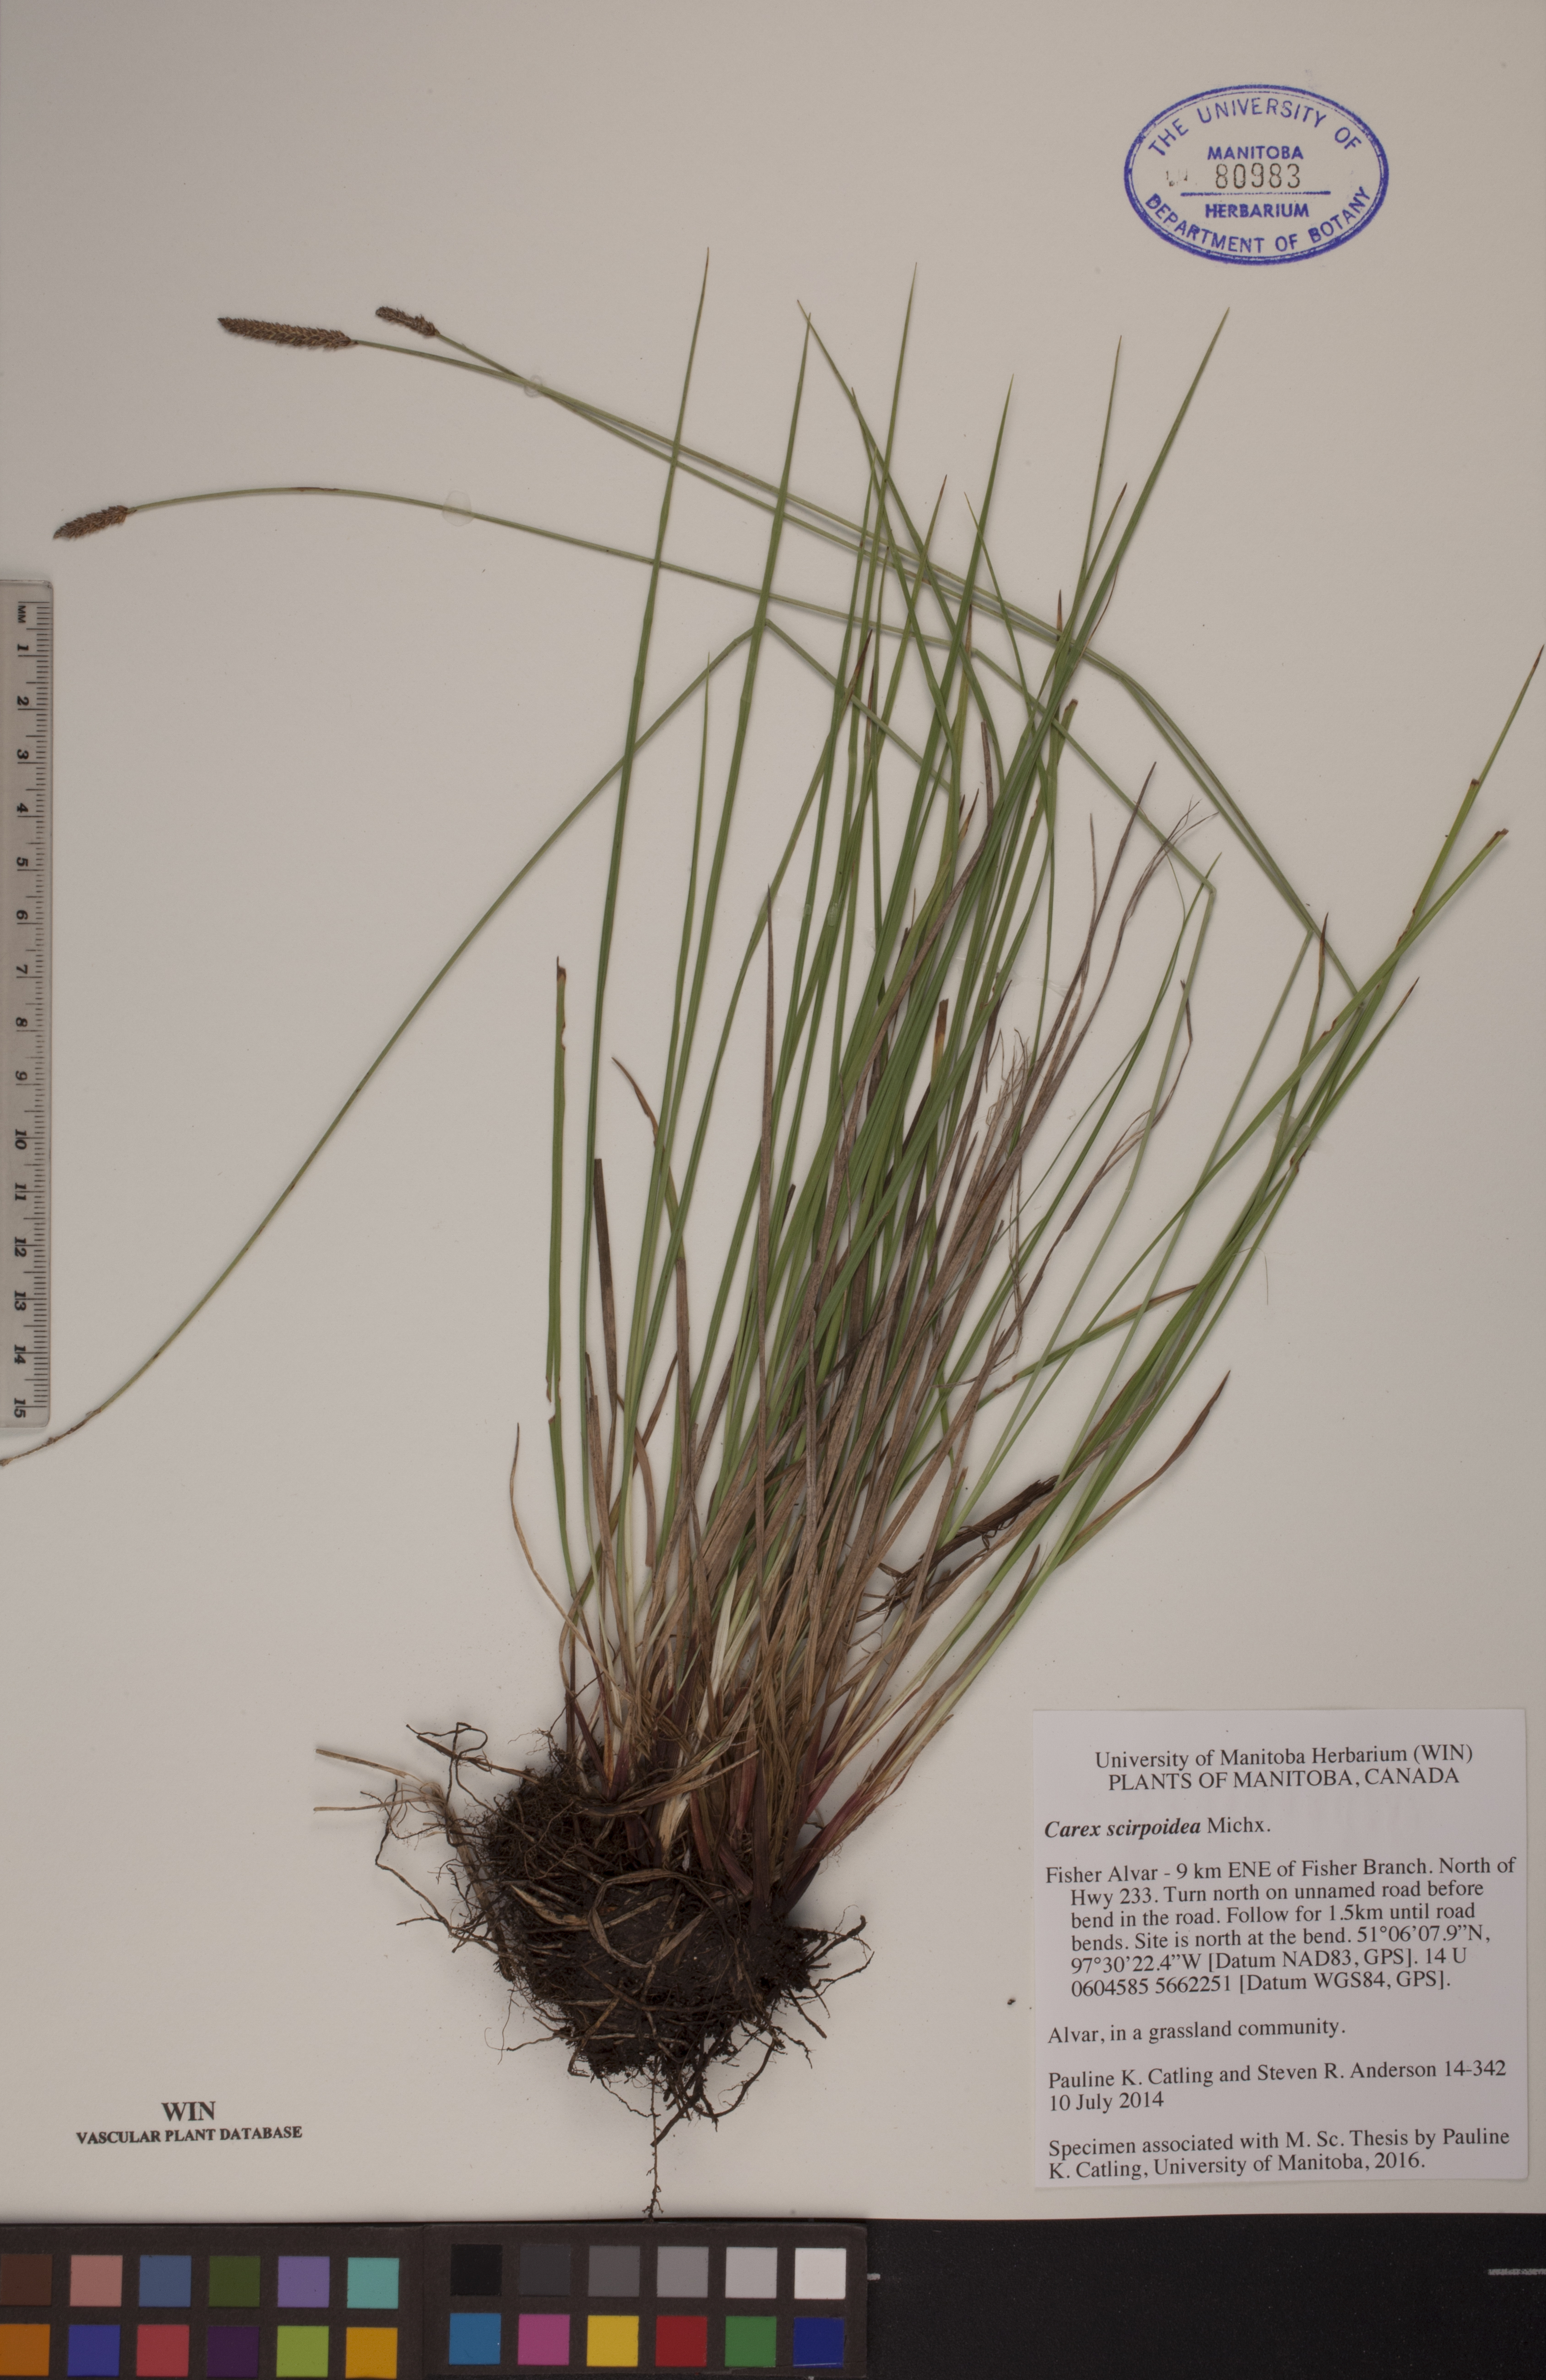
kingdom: Plantae
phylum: Tracheophyta
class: Liliopsida
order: Poales
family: Cyperaceae
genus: Carex
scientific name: Carex scirpoidea
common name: Canada single-spike sedge
